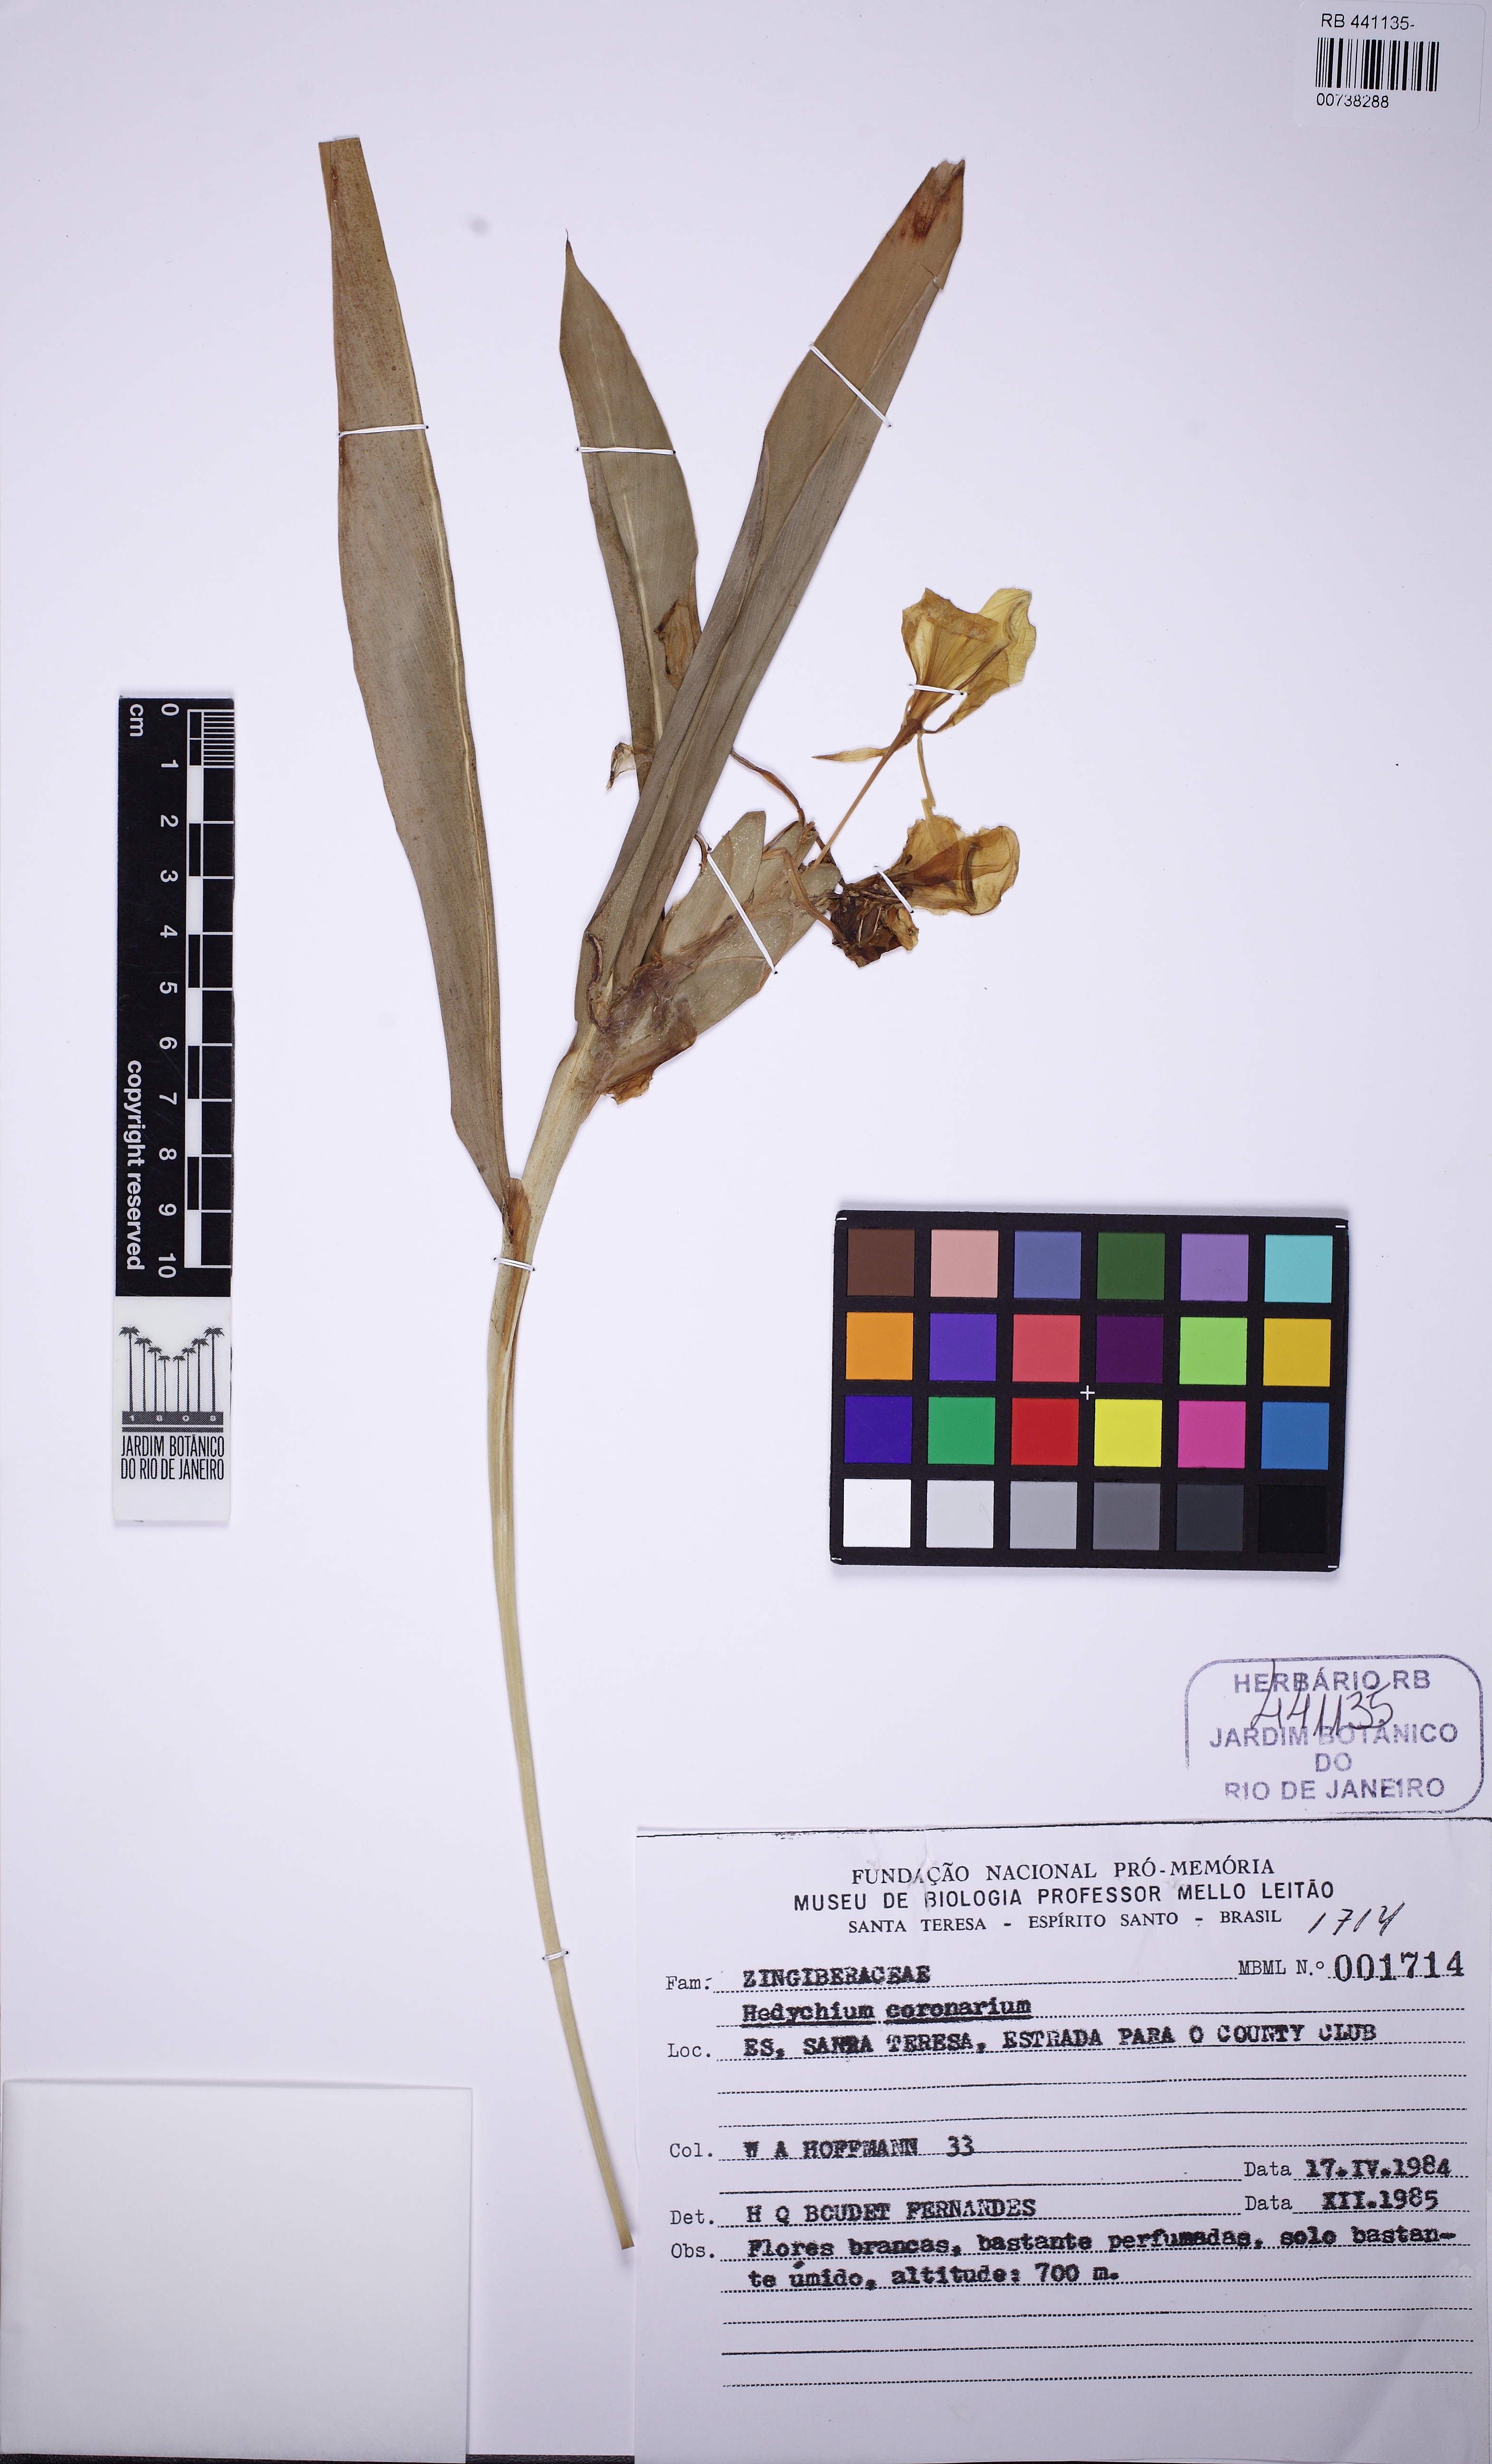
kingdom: Plantae
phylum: Tracheophyta
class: Liliopsida
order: Zingiberales
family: Zingiberaceae
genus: Hedychium
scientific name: Hedychium coronarium
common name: White garland-lily
